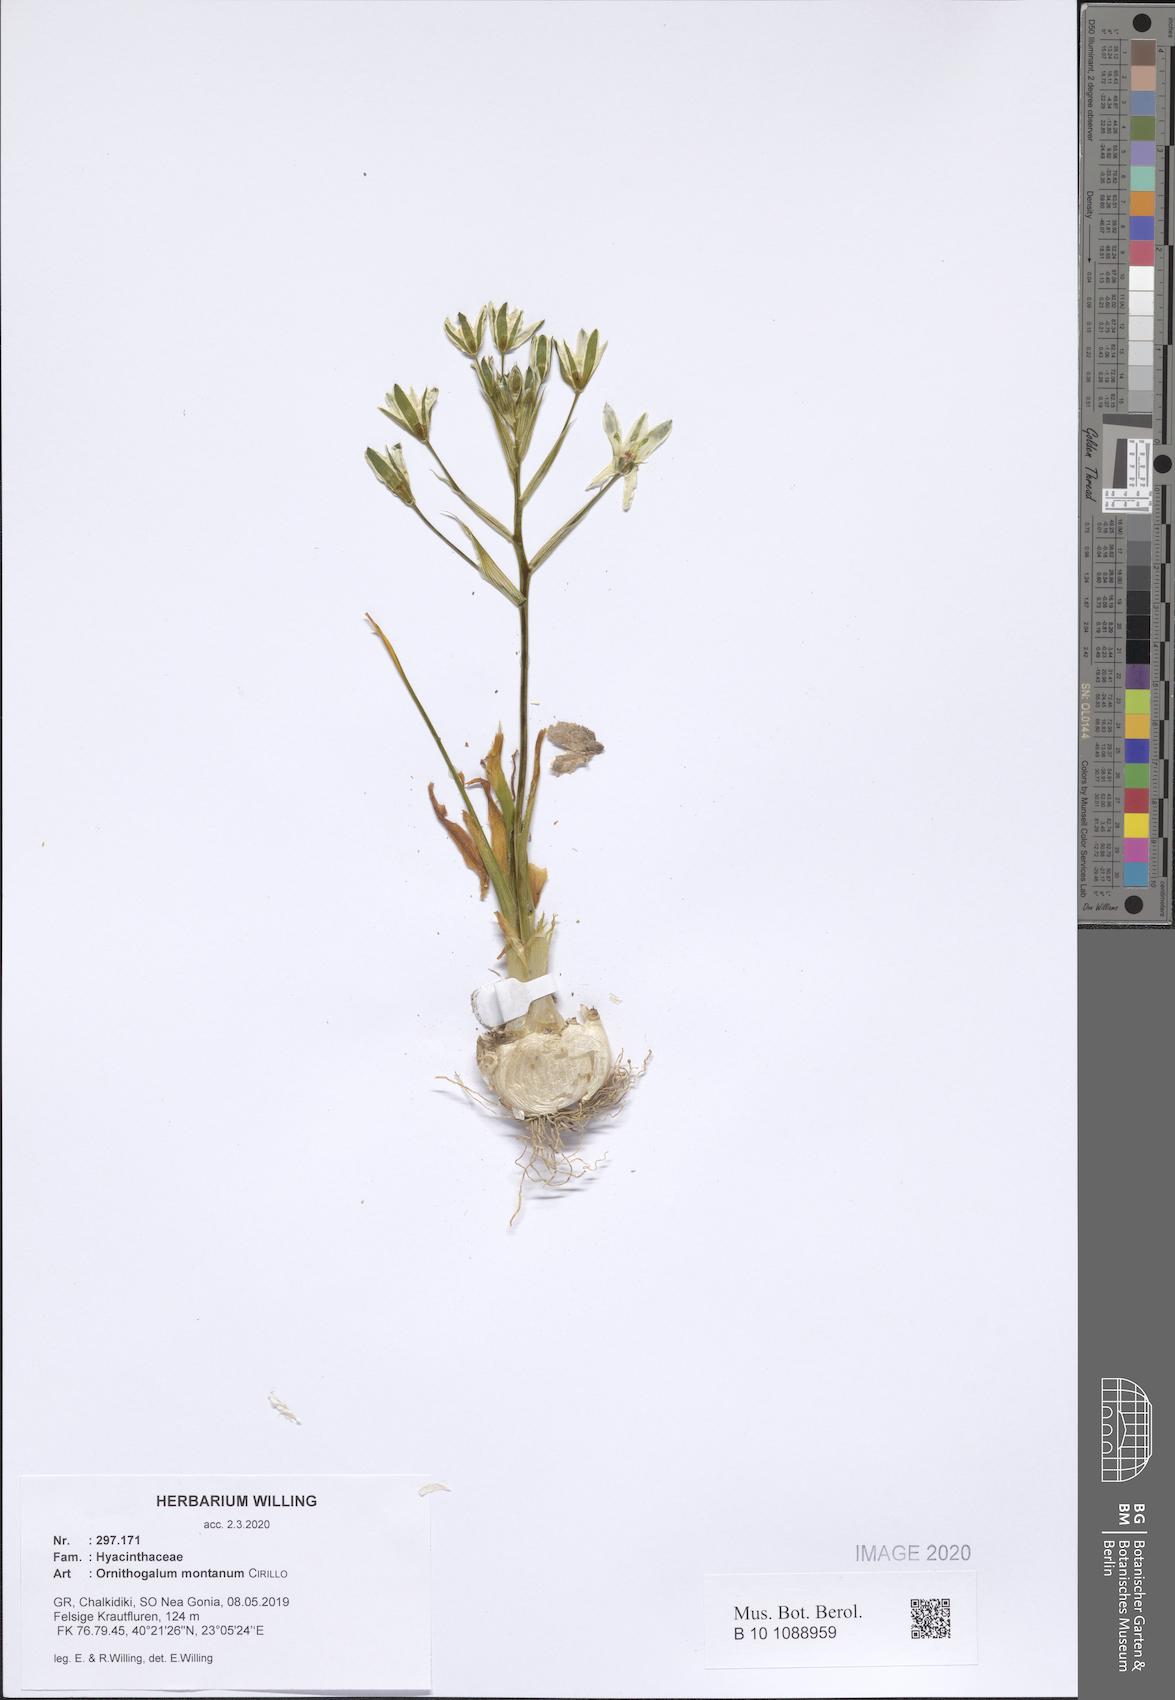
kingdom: Plantae
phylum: Tracheophyta
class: Liliopsida
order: Asparagales
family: Asparagaceae
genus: Ornithogalum
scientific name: Ornithogalum montanum
